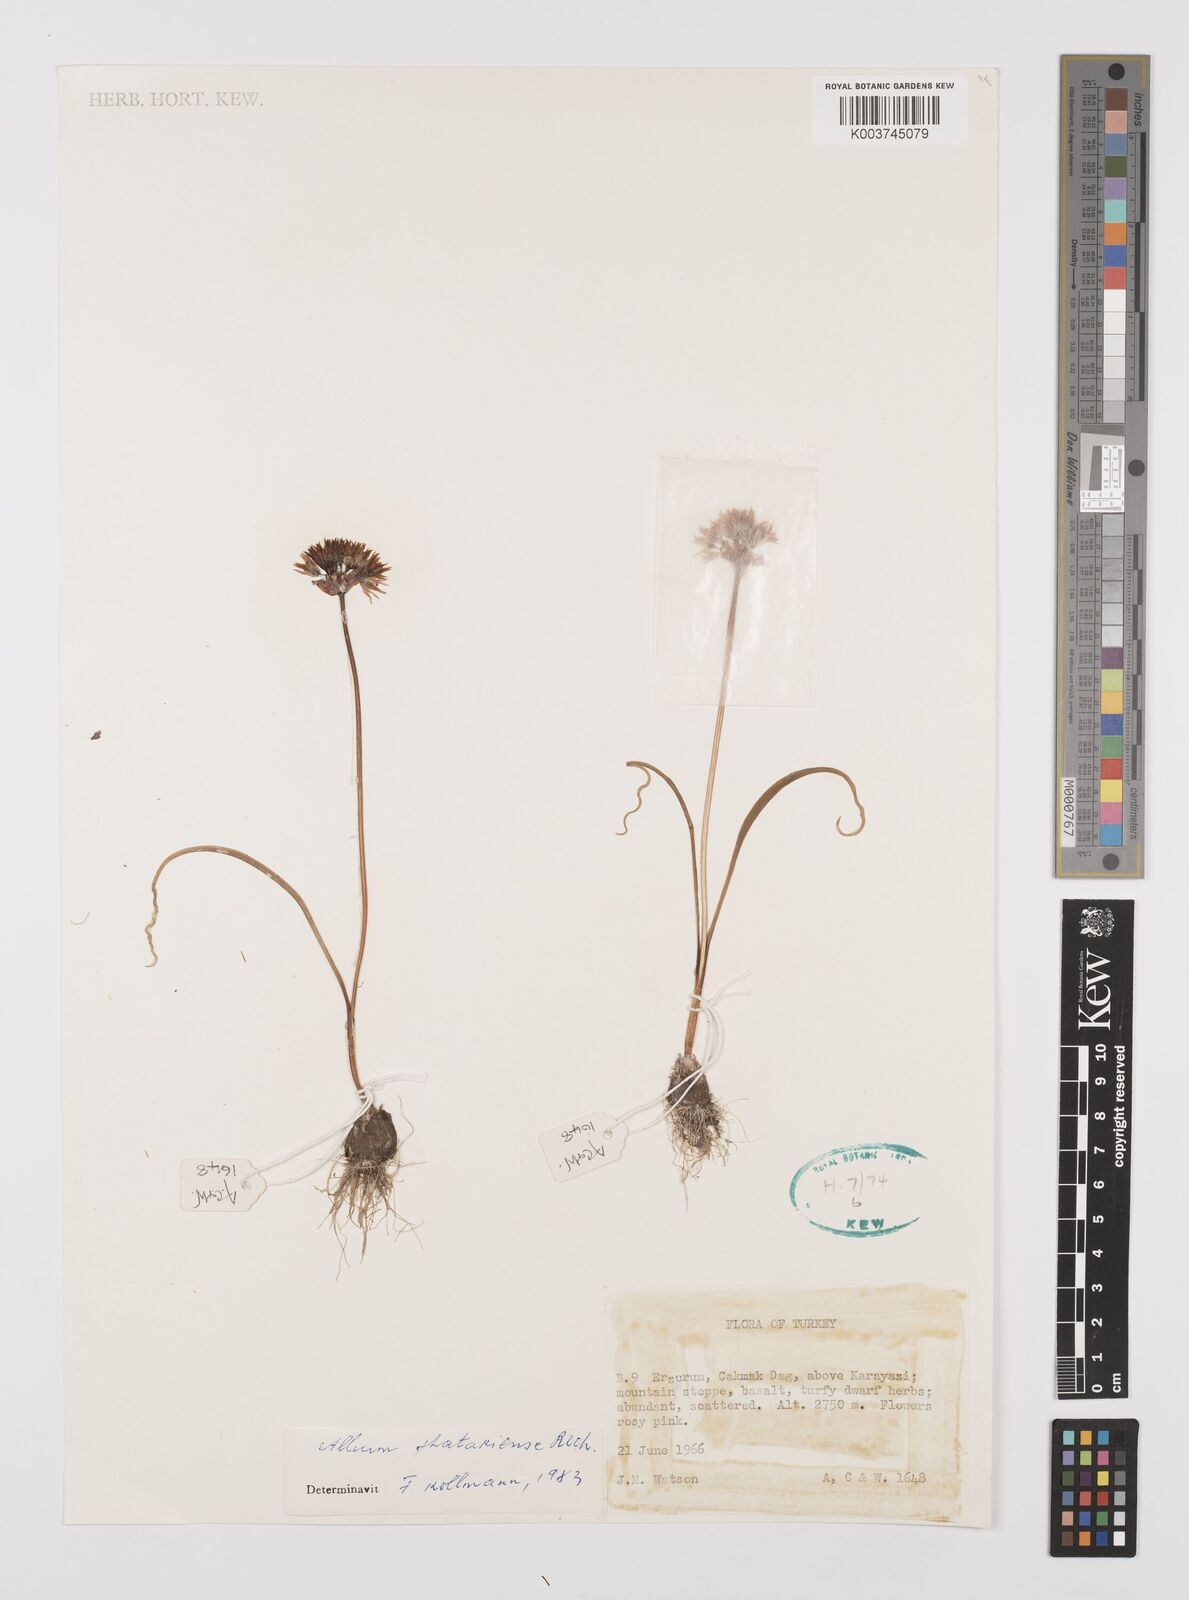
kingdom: Plantae
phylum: Tracheophyta
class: Liliopsida
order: Asparagales
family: Amaryllidaceae
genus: Allium
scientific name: Allium shatakiense
